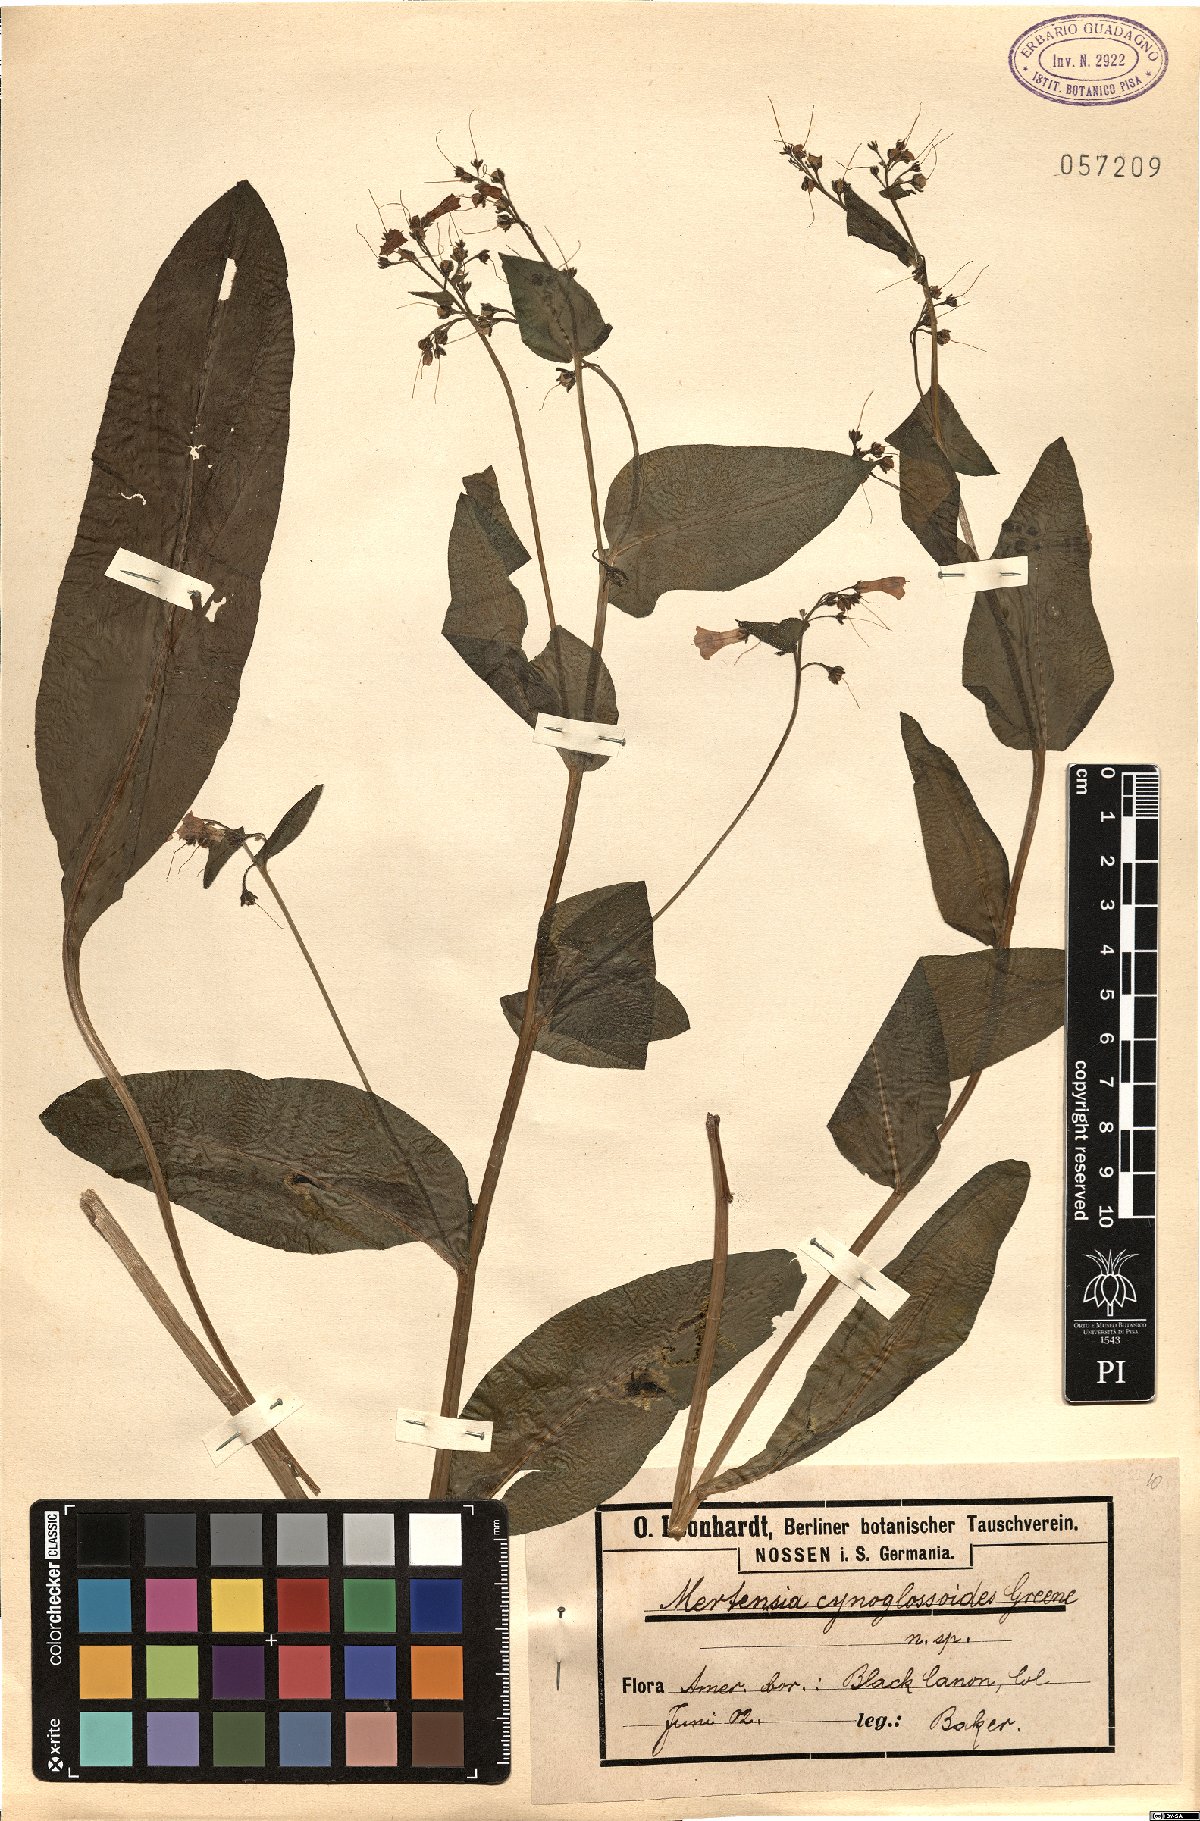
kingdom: Plantae
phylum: Tracheophyta
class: Magnoliopsida
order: Boraginales
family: Boraginaceae
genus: Mertensia
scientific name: Mertensia cynoglossoides
